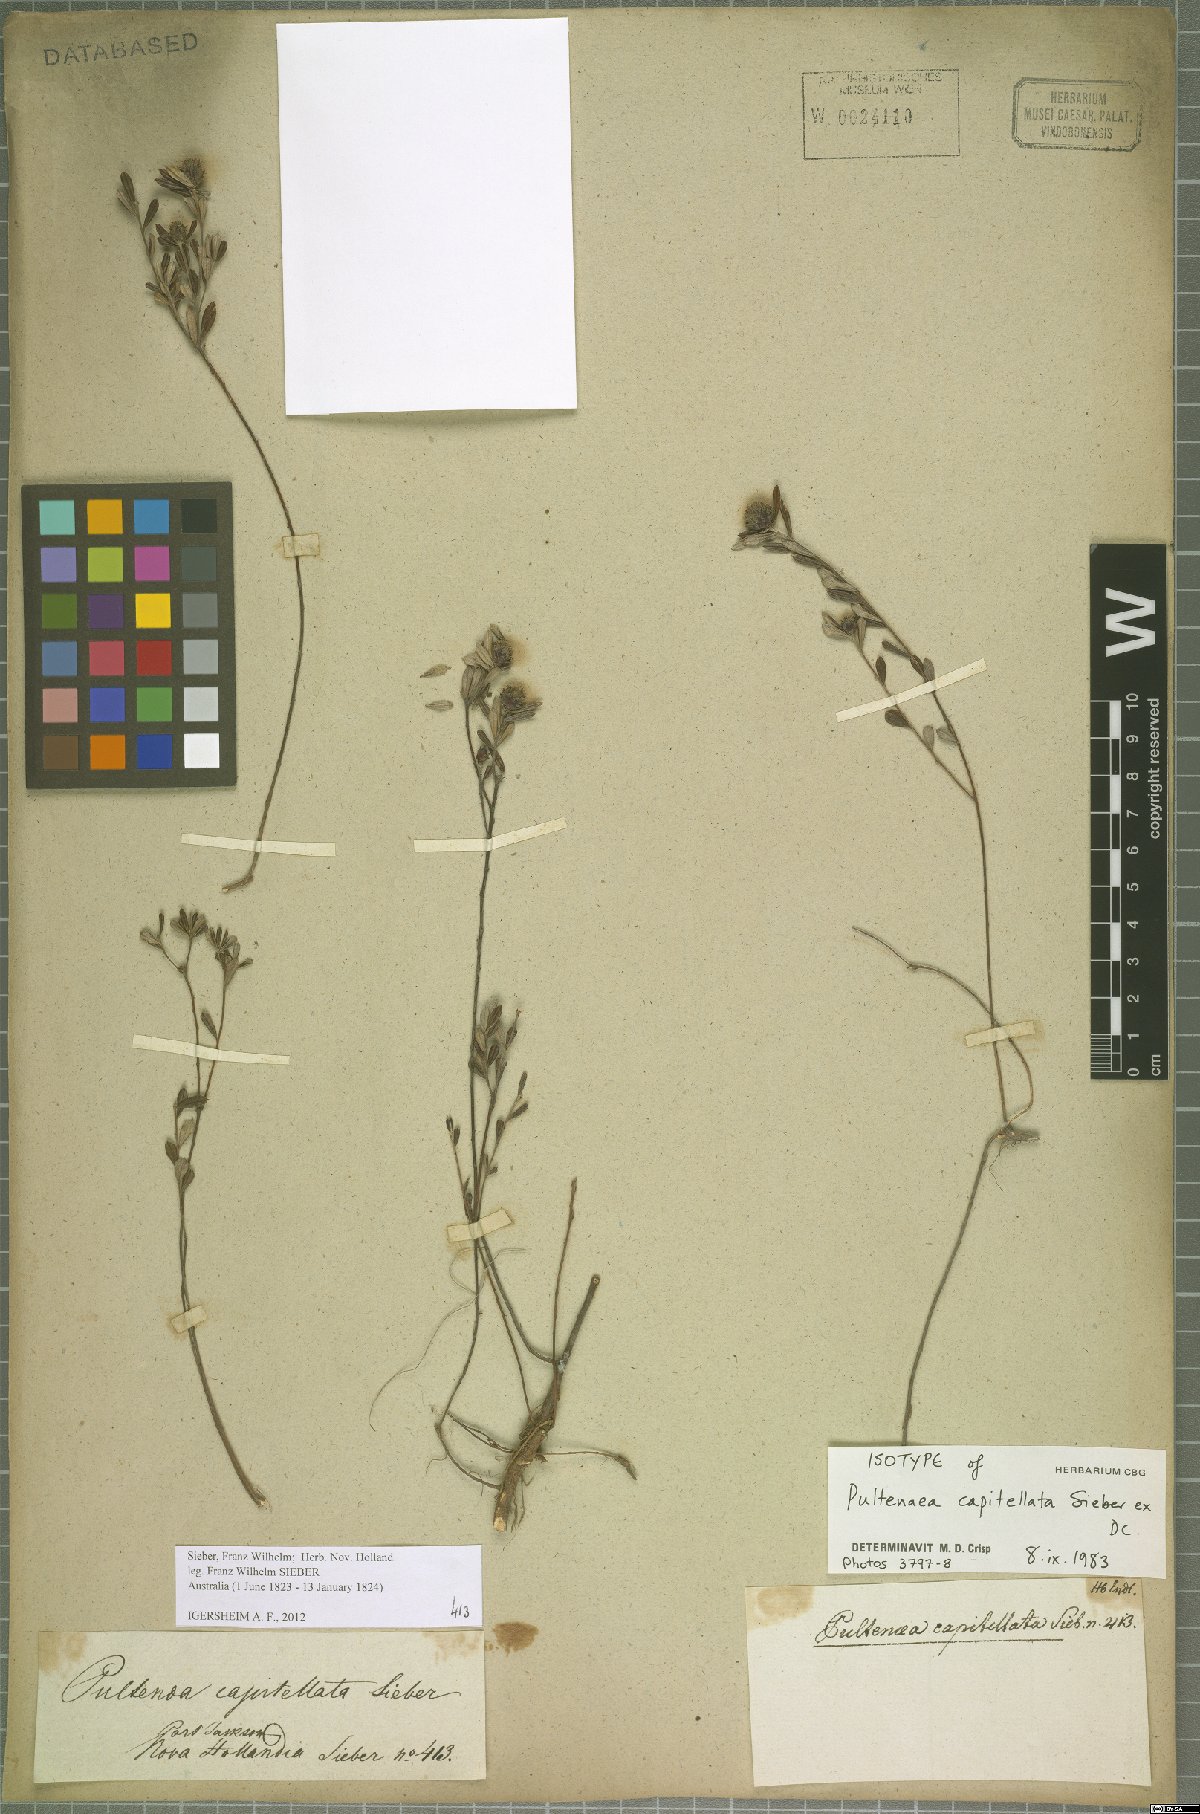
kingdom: Plantae
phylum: Tracheophyta
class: Magnoliopsida
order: Fabales
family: Fabaceae
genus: Pultenaea
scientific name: Pultenaea capitellata
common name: Hard-head bush-pea
